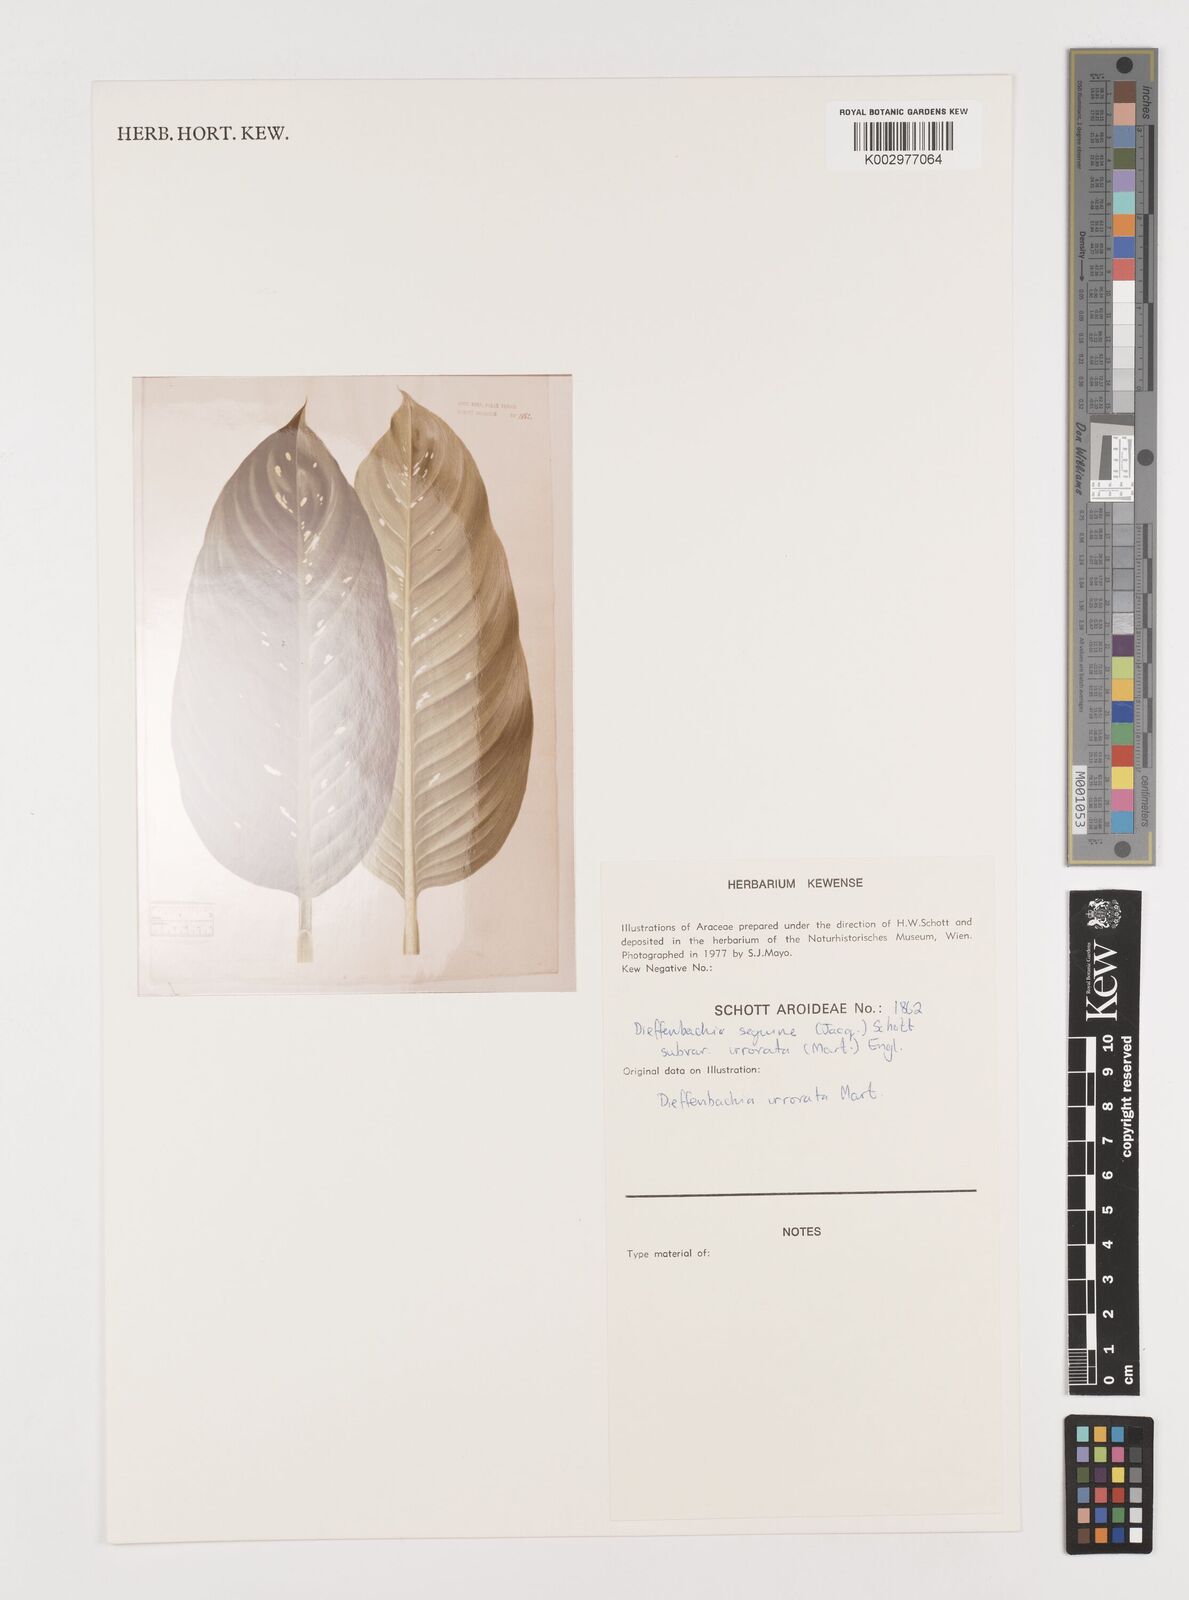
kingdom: Plantae
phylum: Tracheophyta
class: Liliopsida
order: Alismatales
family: Araceae
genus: Dieffenbachia
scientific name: Dieffenbachia seguine
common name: Dumbcane
